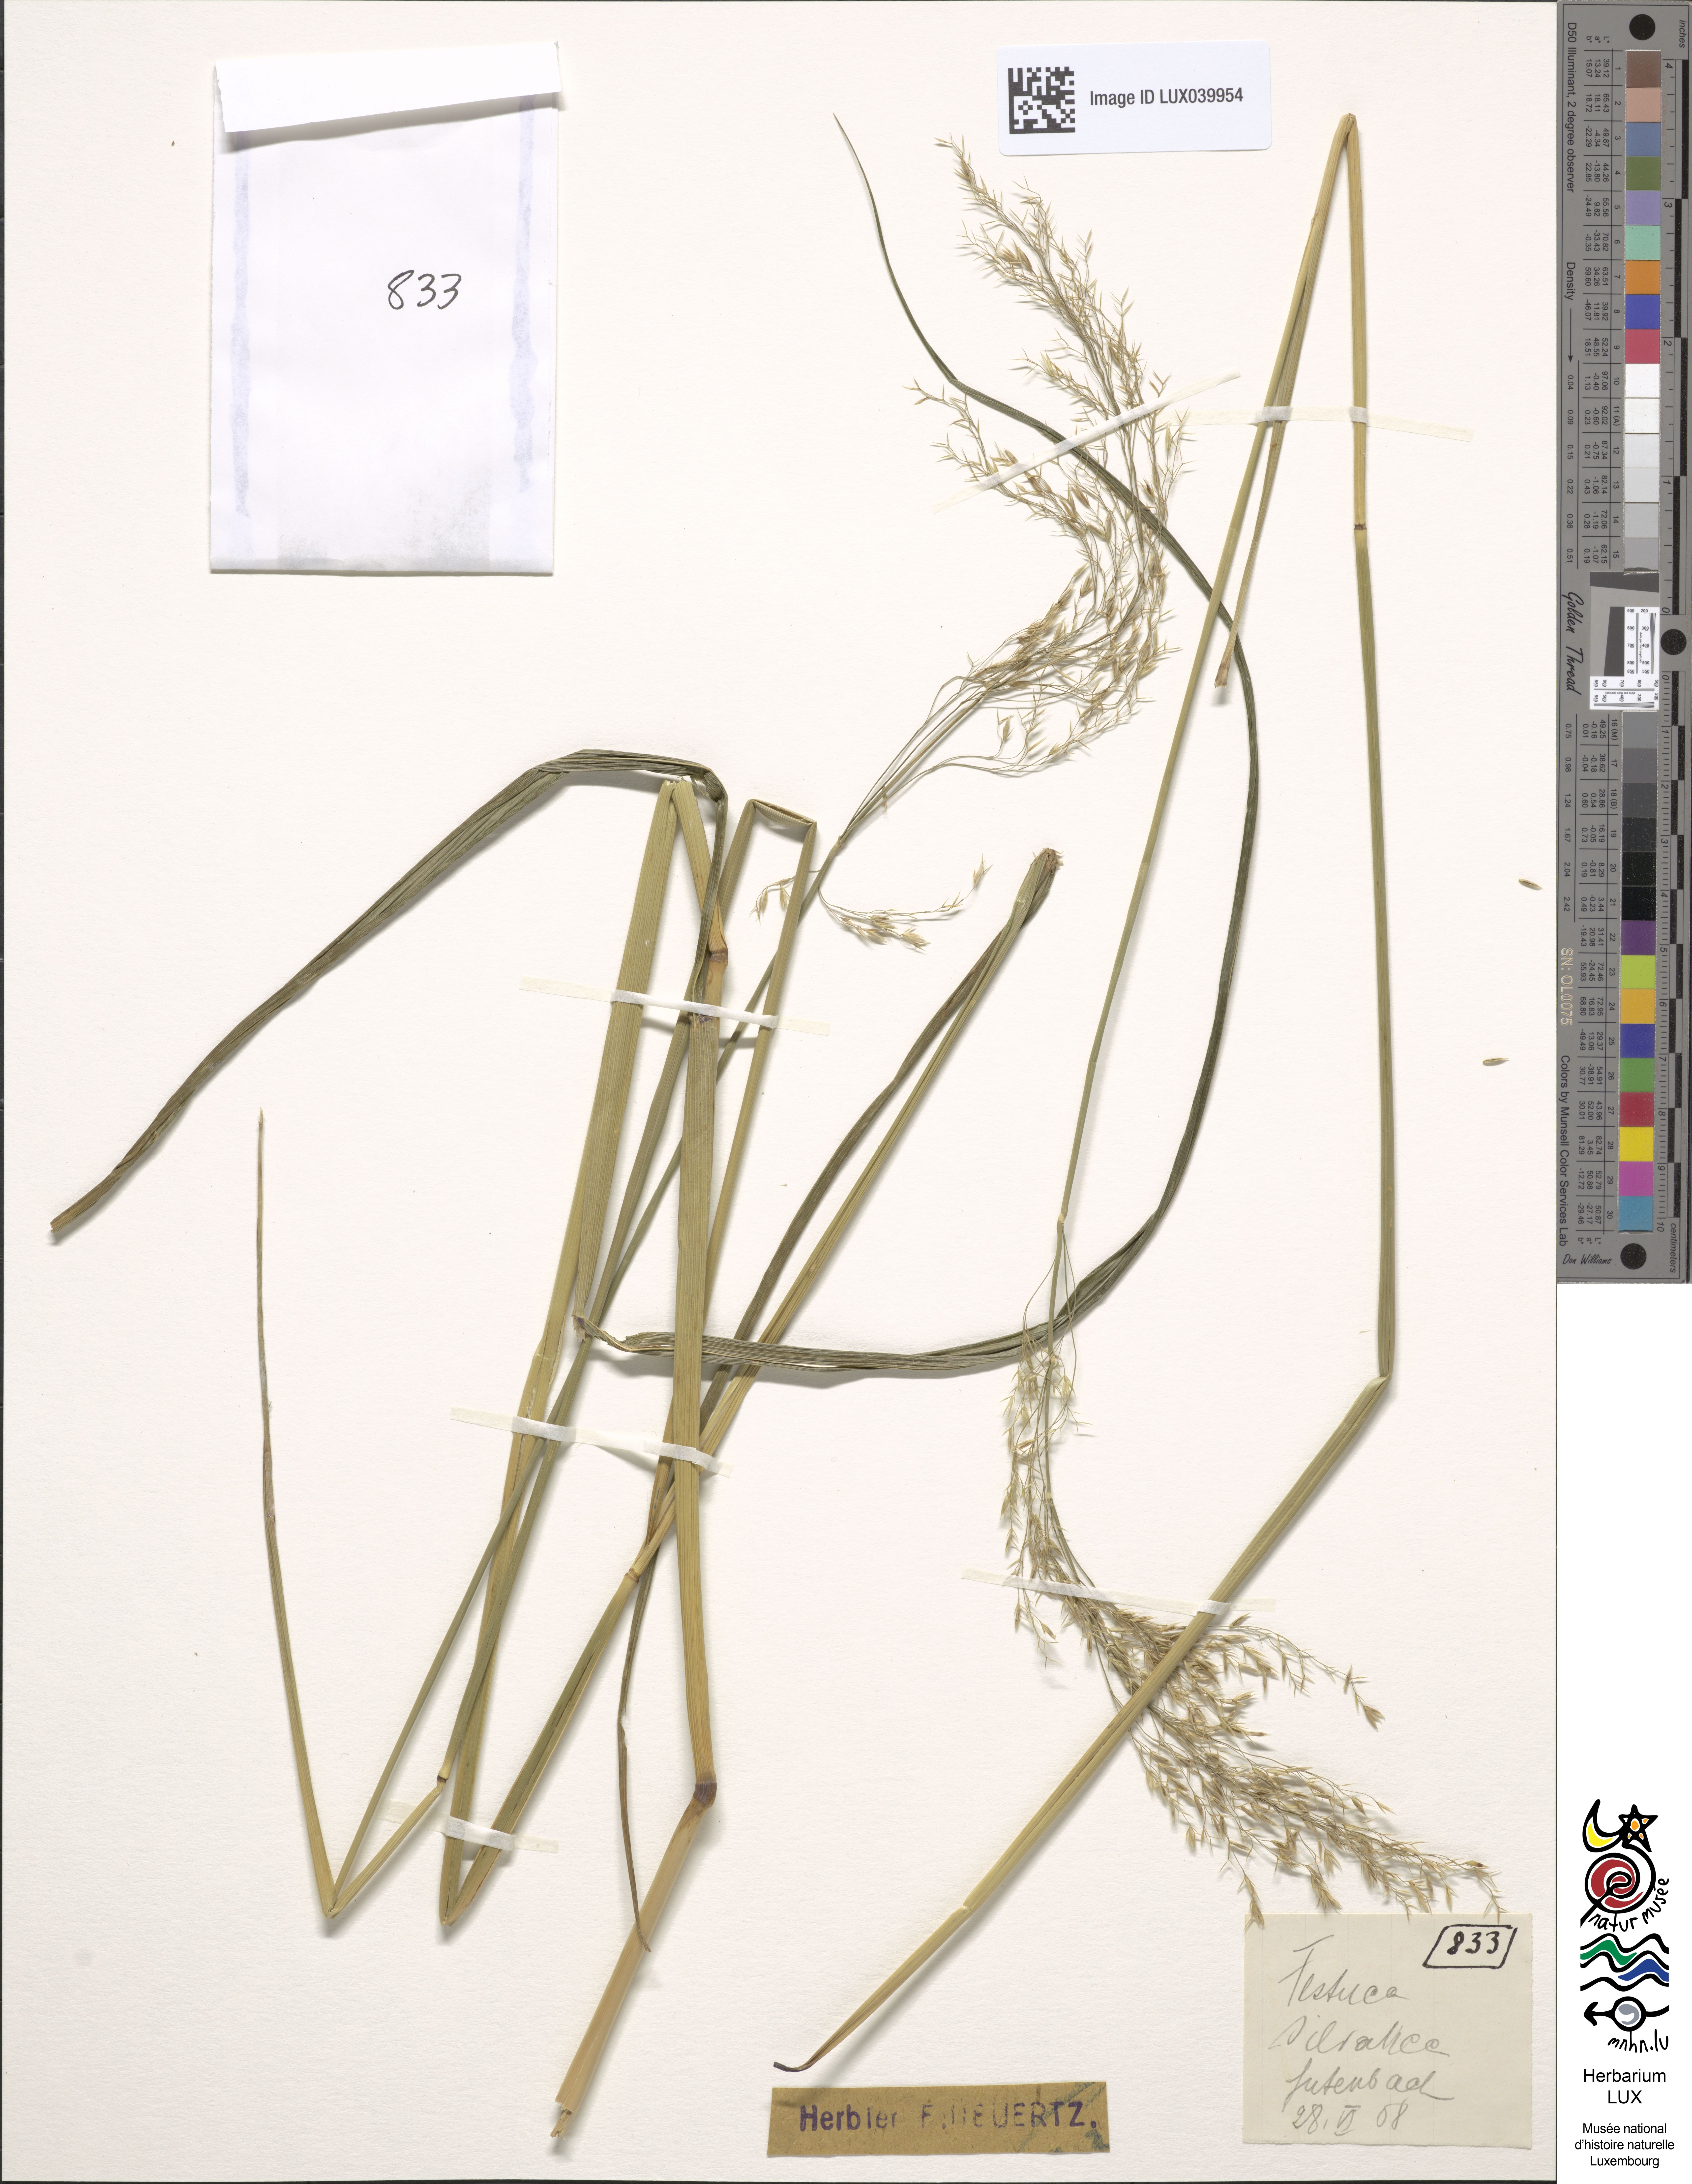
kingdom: Plantae
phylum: Tracheophyta
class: Liliopsida
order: Poales
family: Poaceae
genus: Festuca
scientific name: Festuca altissima
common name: Wood fescue
